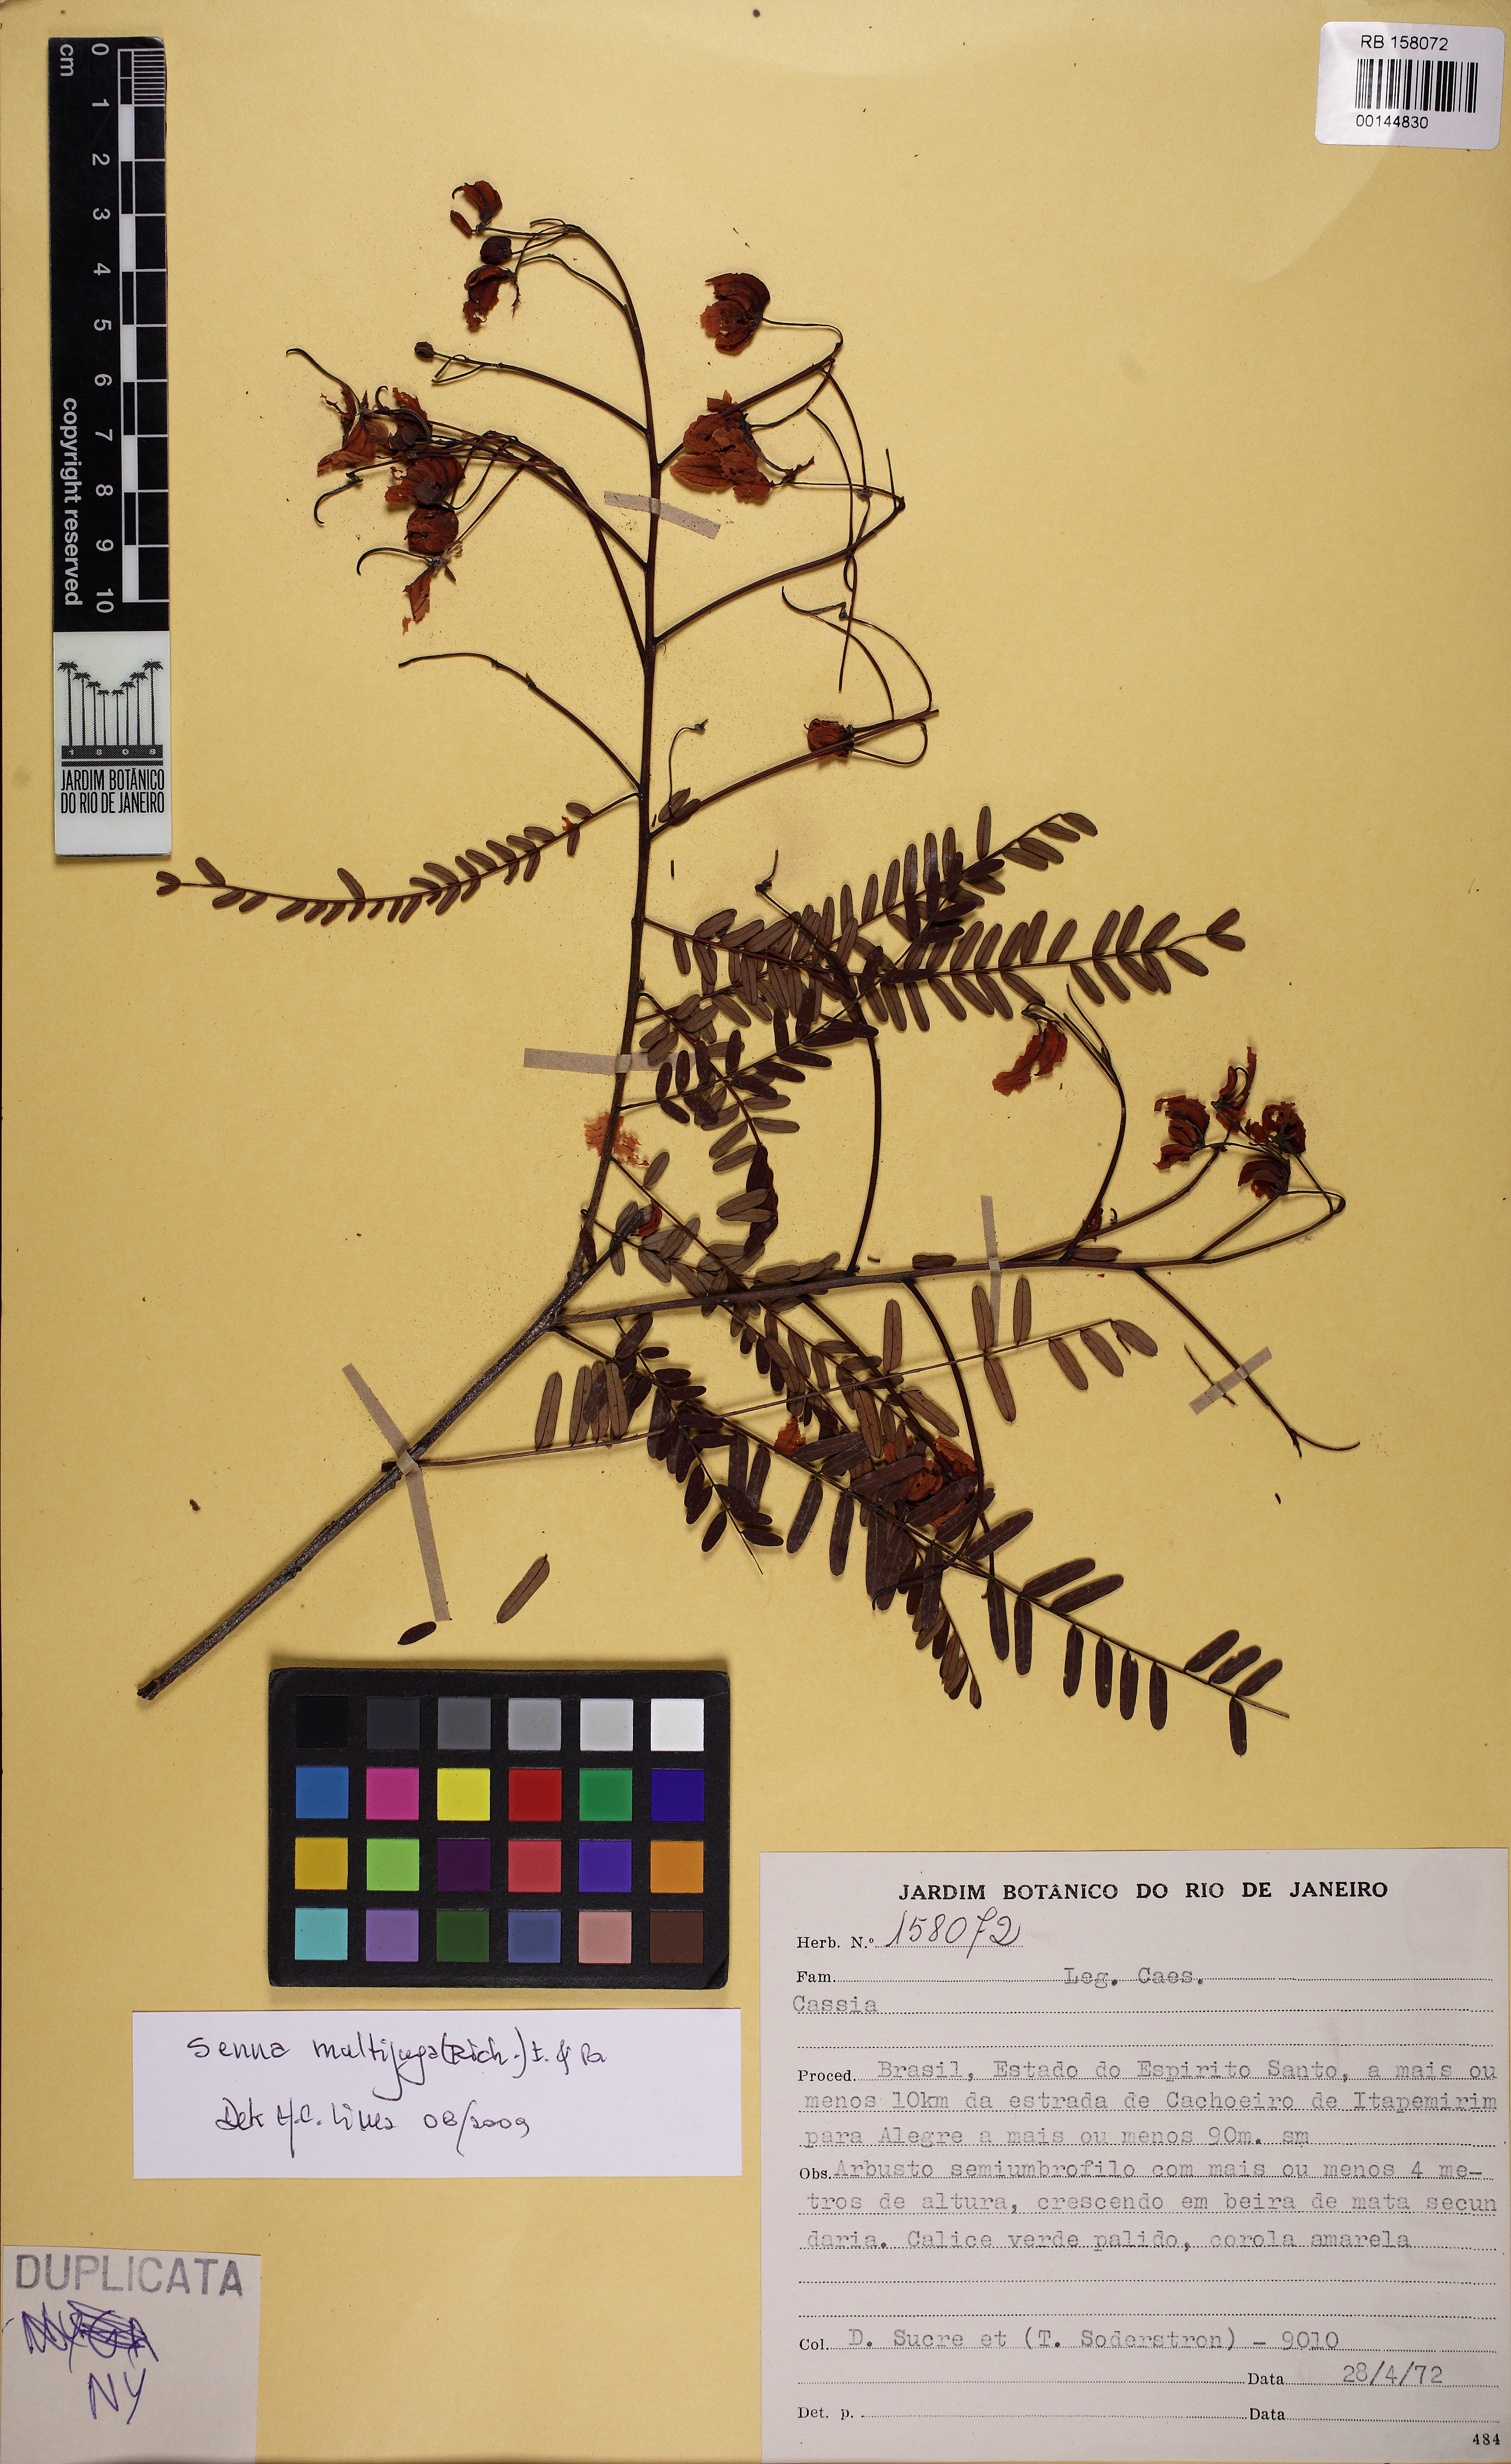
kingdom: Plantae
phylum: Tracheophyta
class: Magnoliopsida
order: Fabales
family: Fabaceae
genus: Senna
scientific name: Senna multijuga
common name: False sicklepod
